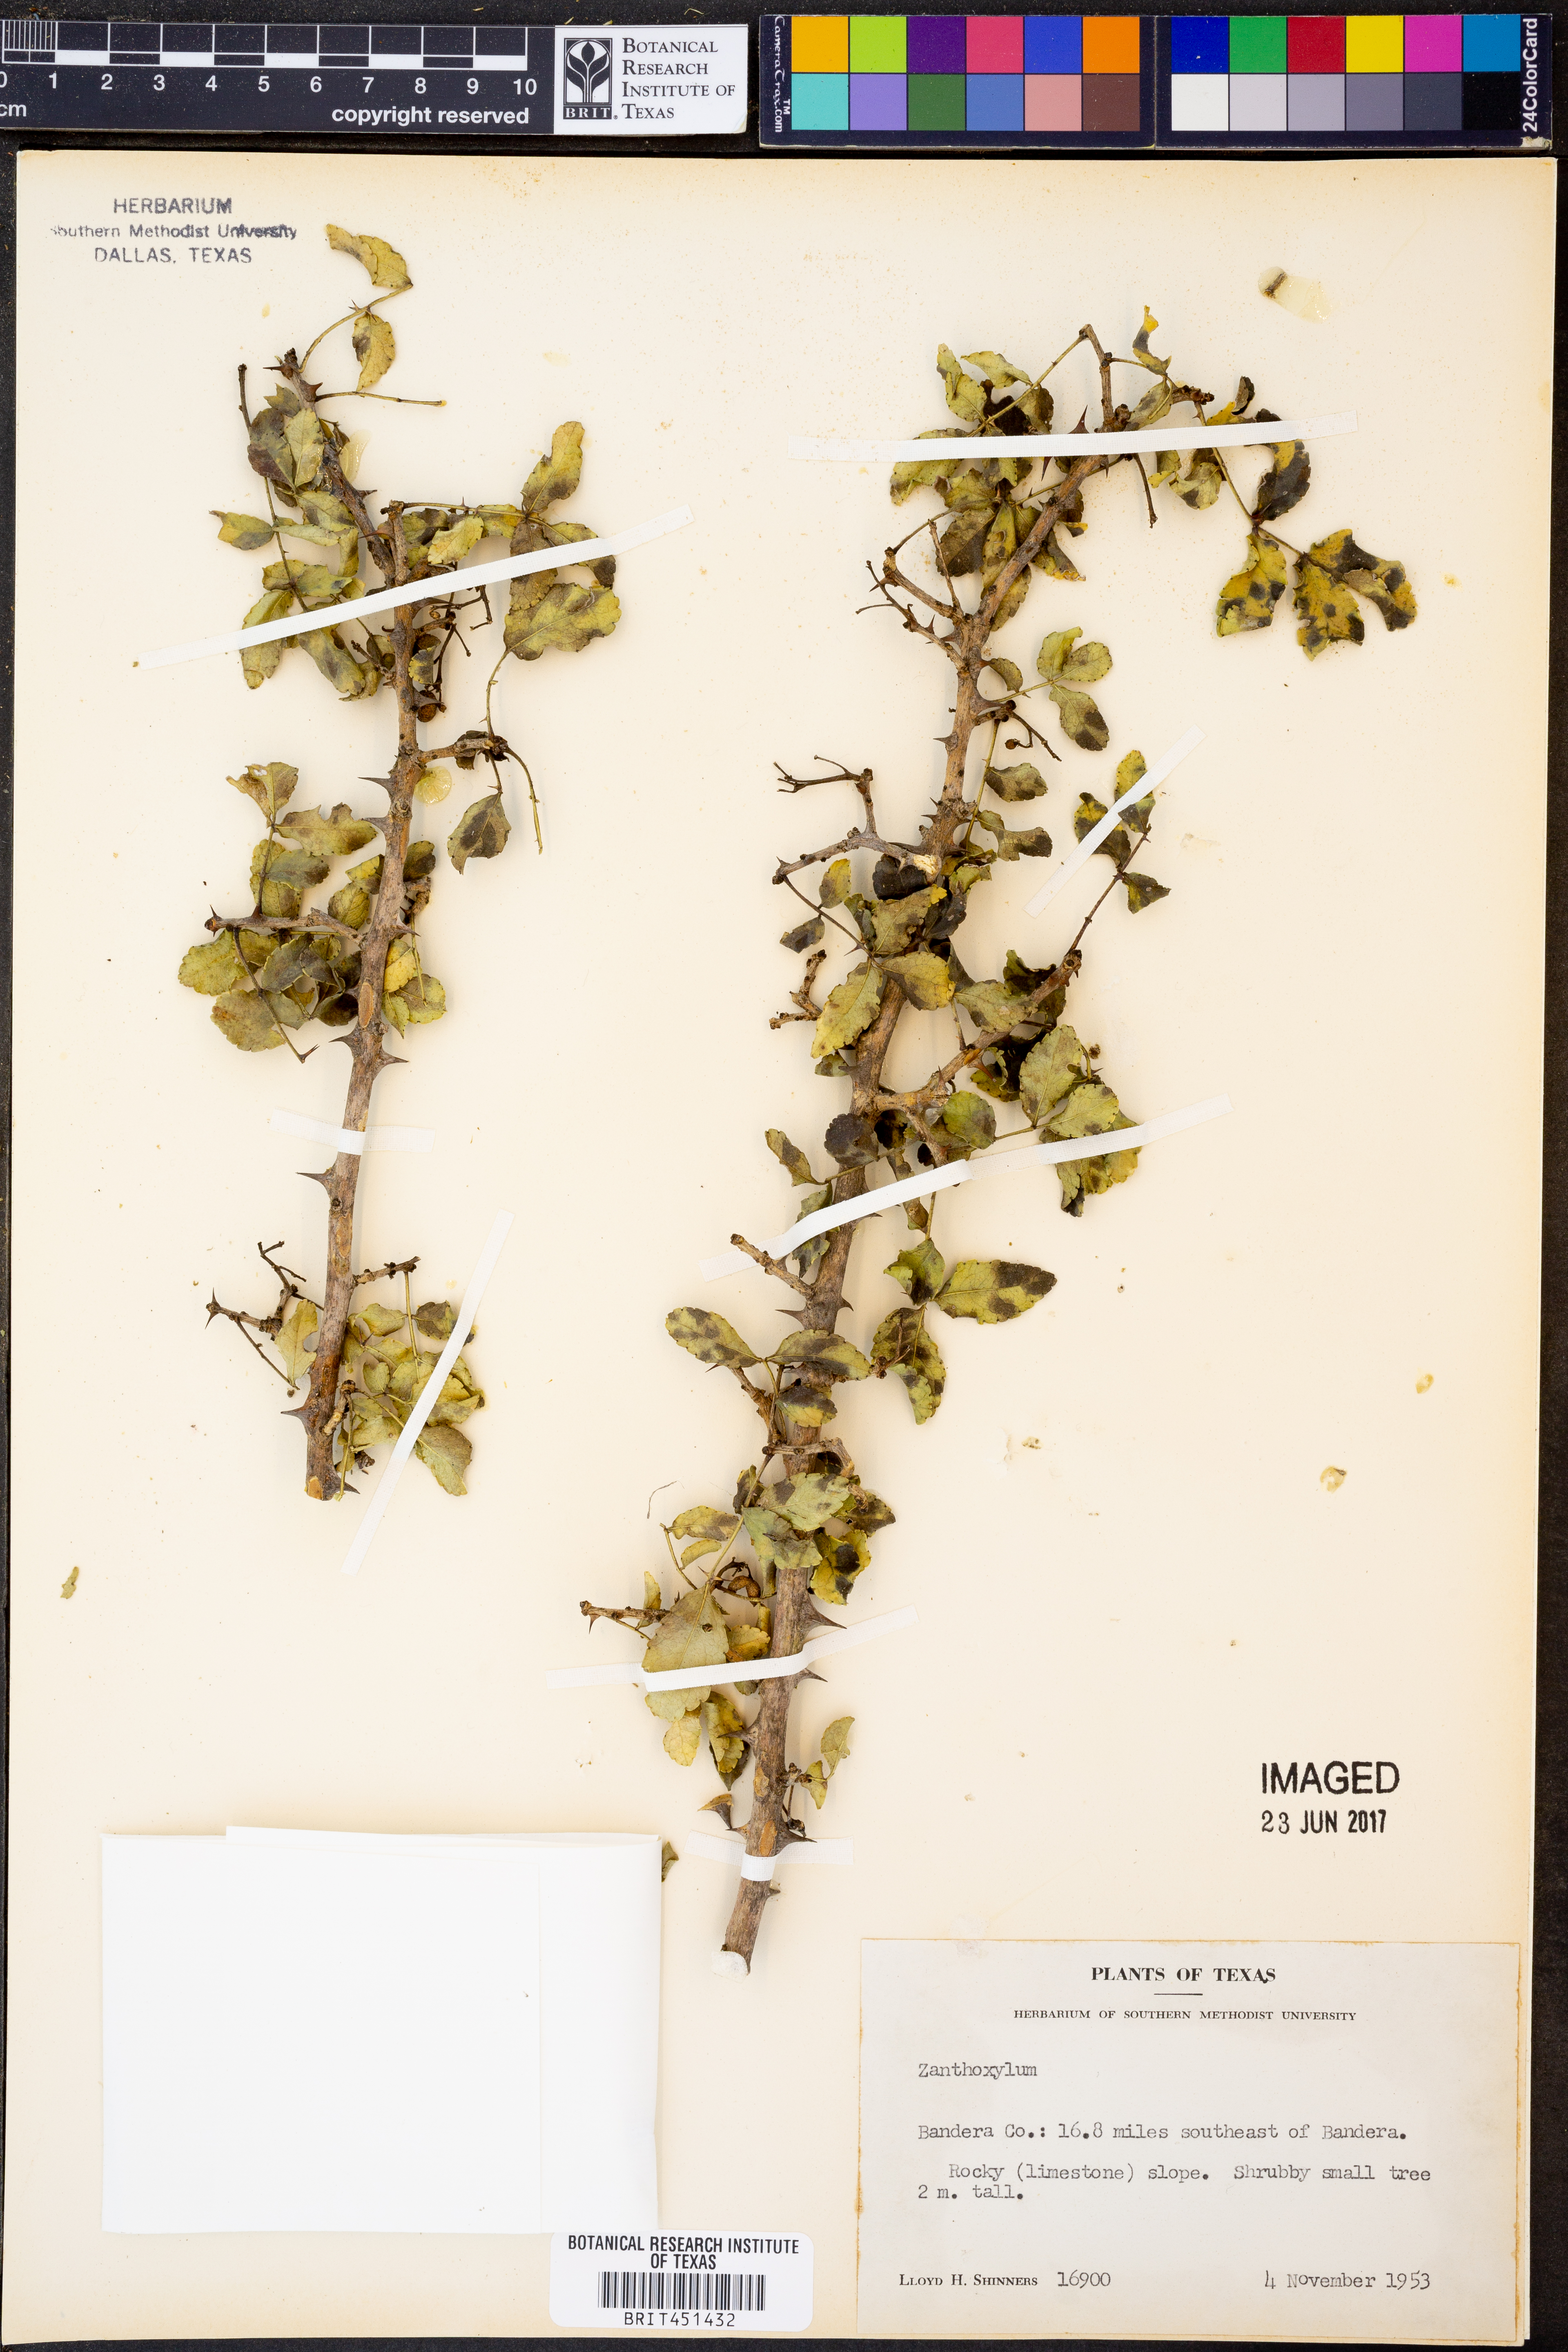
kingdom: Plantae
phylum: Tracheophyta
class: Magnoliopsida
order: Sapindales
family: Rutaceae
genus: Zanthoxylum
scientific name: Zanthoxylum
